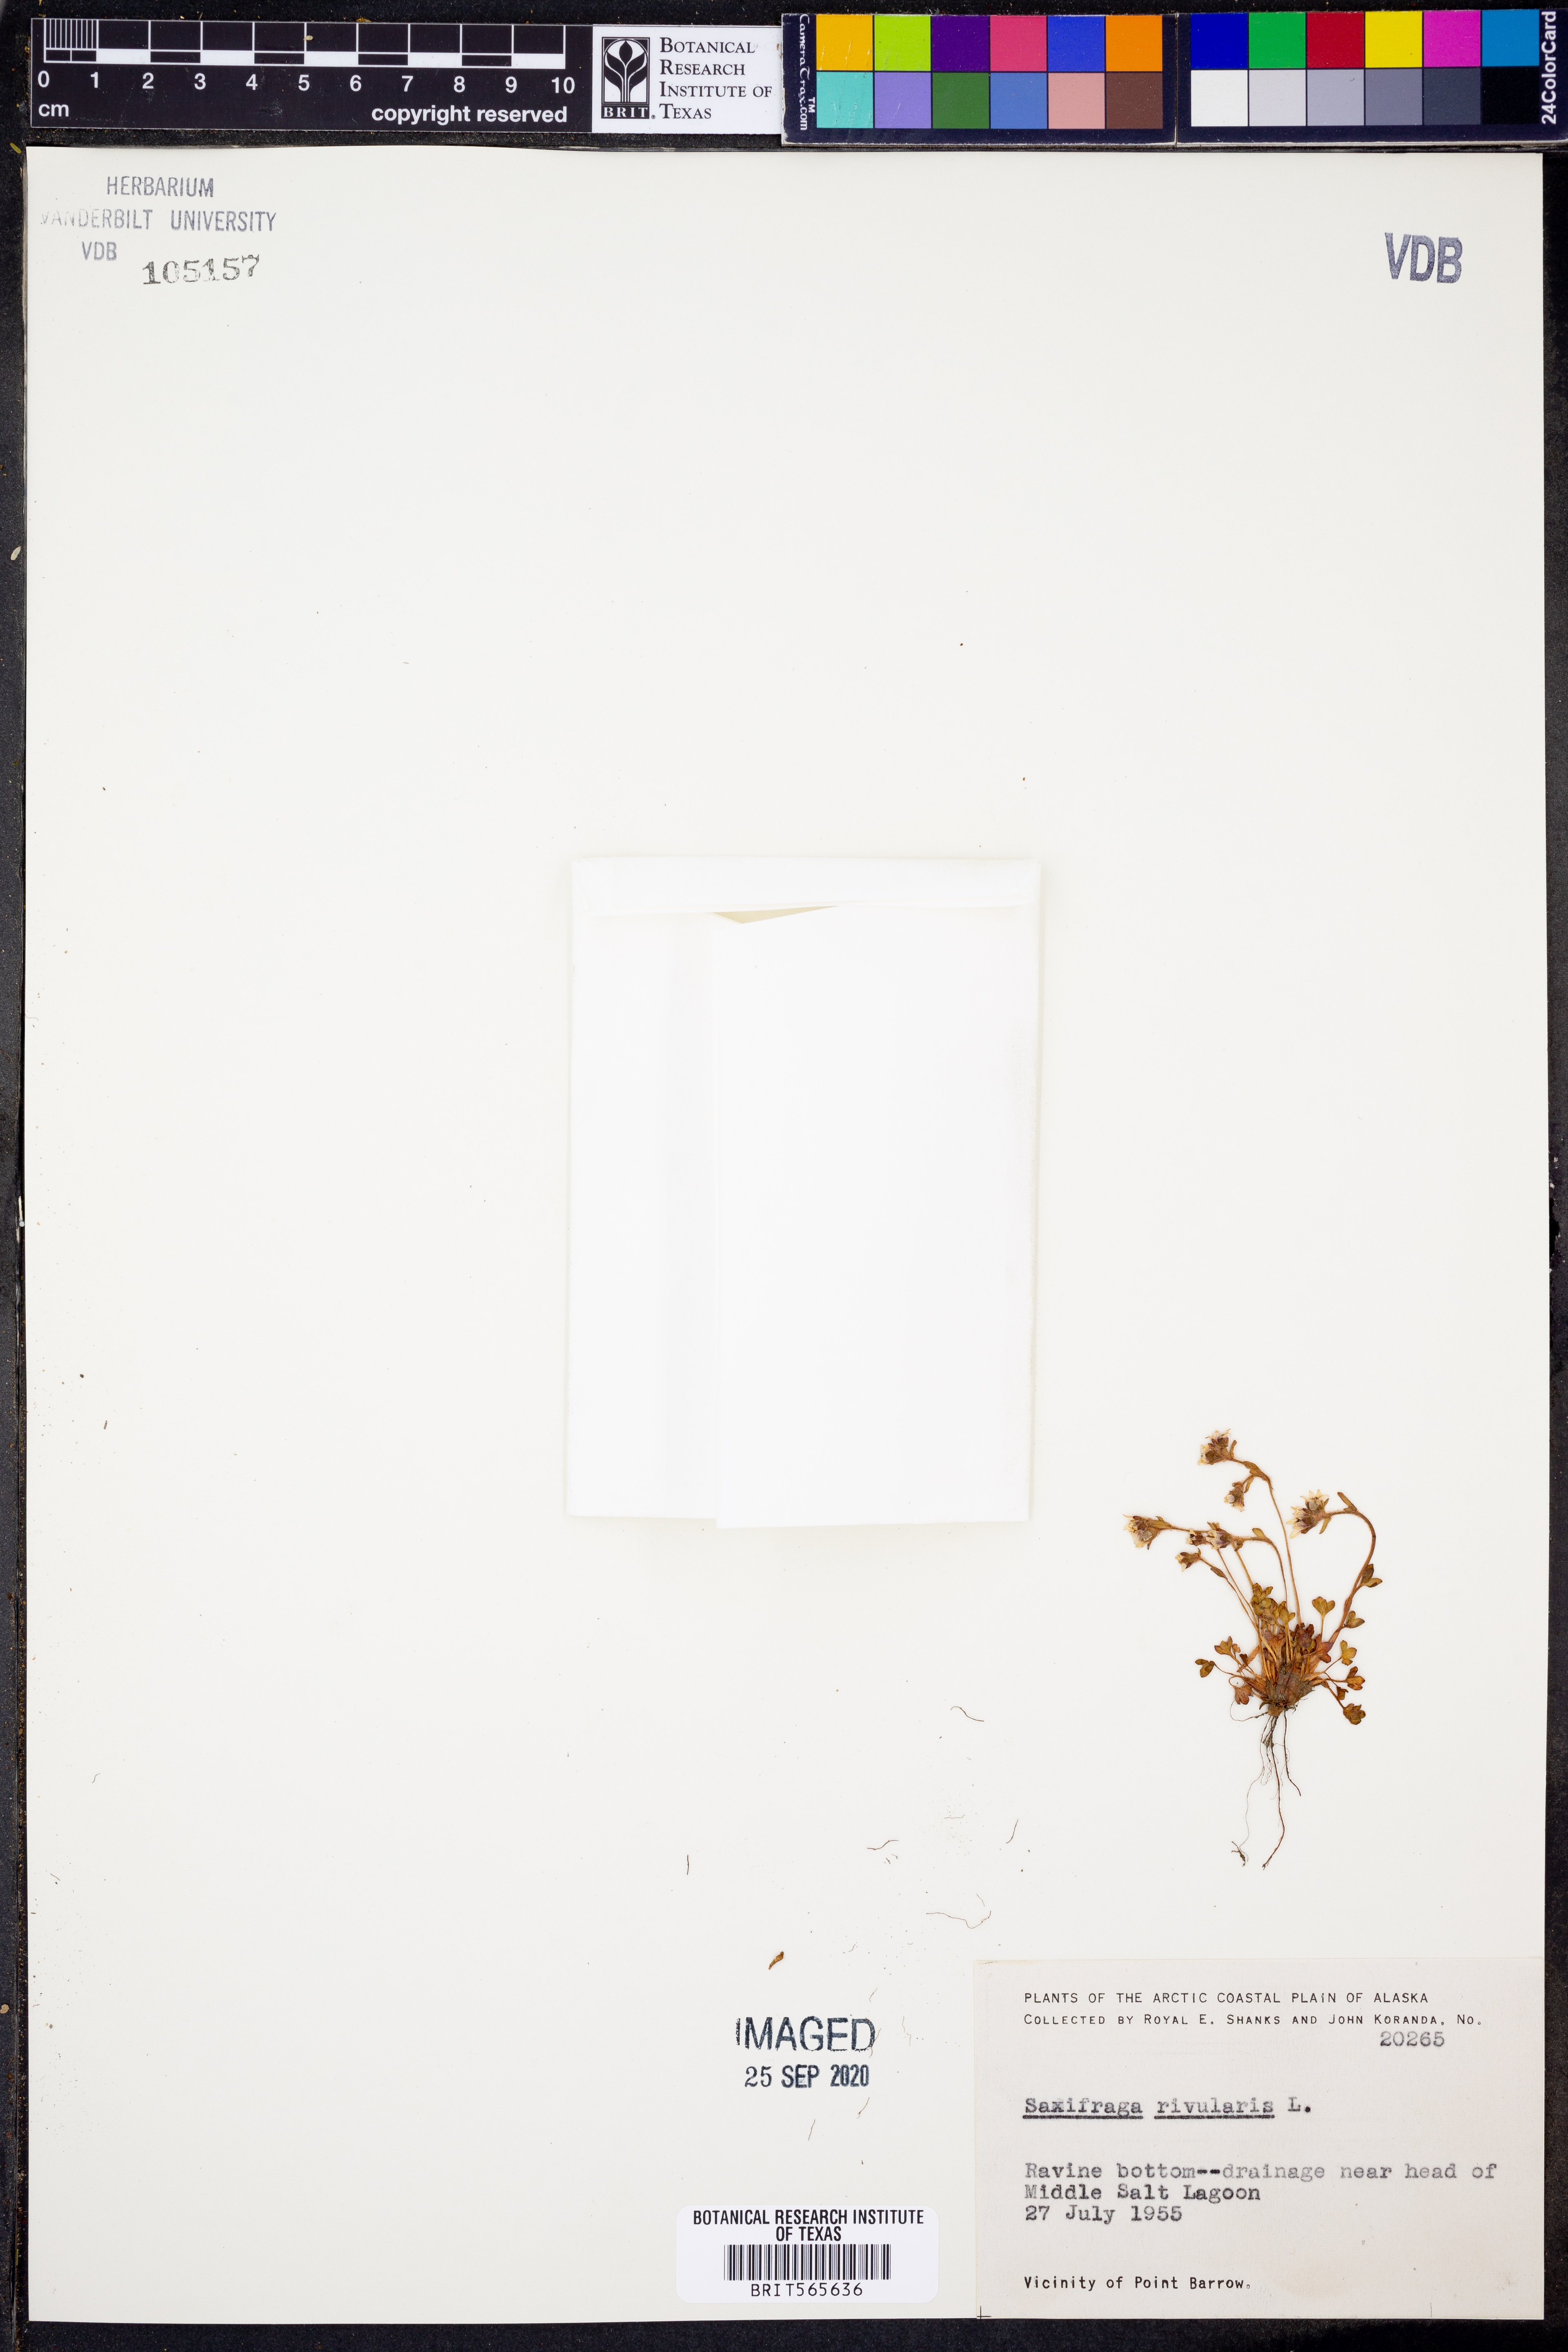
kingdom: Plantae
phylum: Tracheophyta
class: Magnoliopsida
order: Saxifragales
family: Saxifragaceae
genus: Saxifraga
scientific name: Saxifraga rivularis
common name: Highland saxifrage
